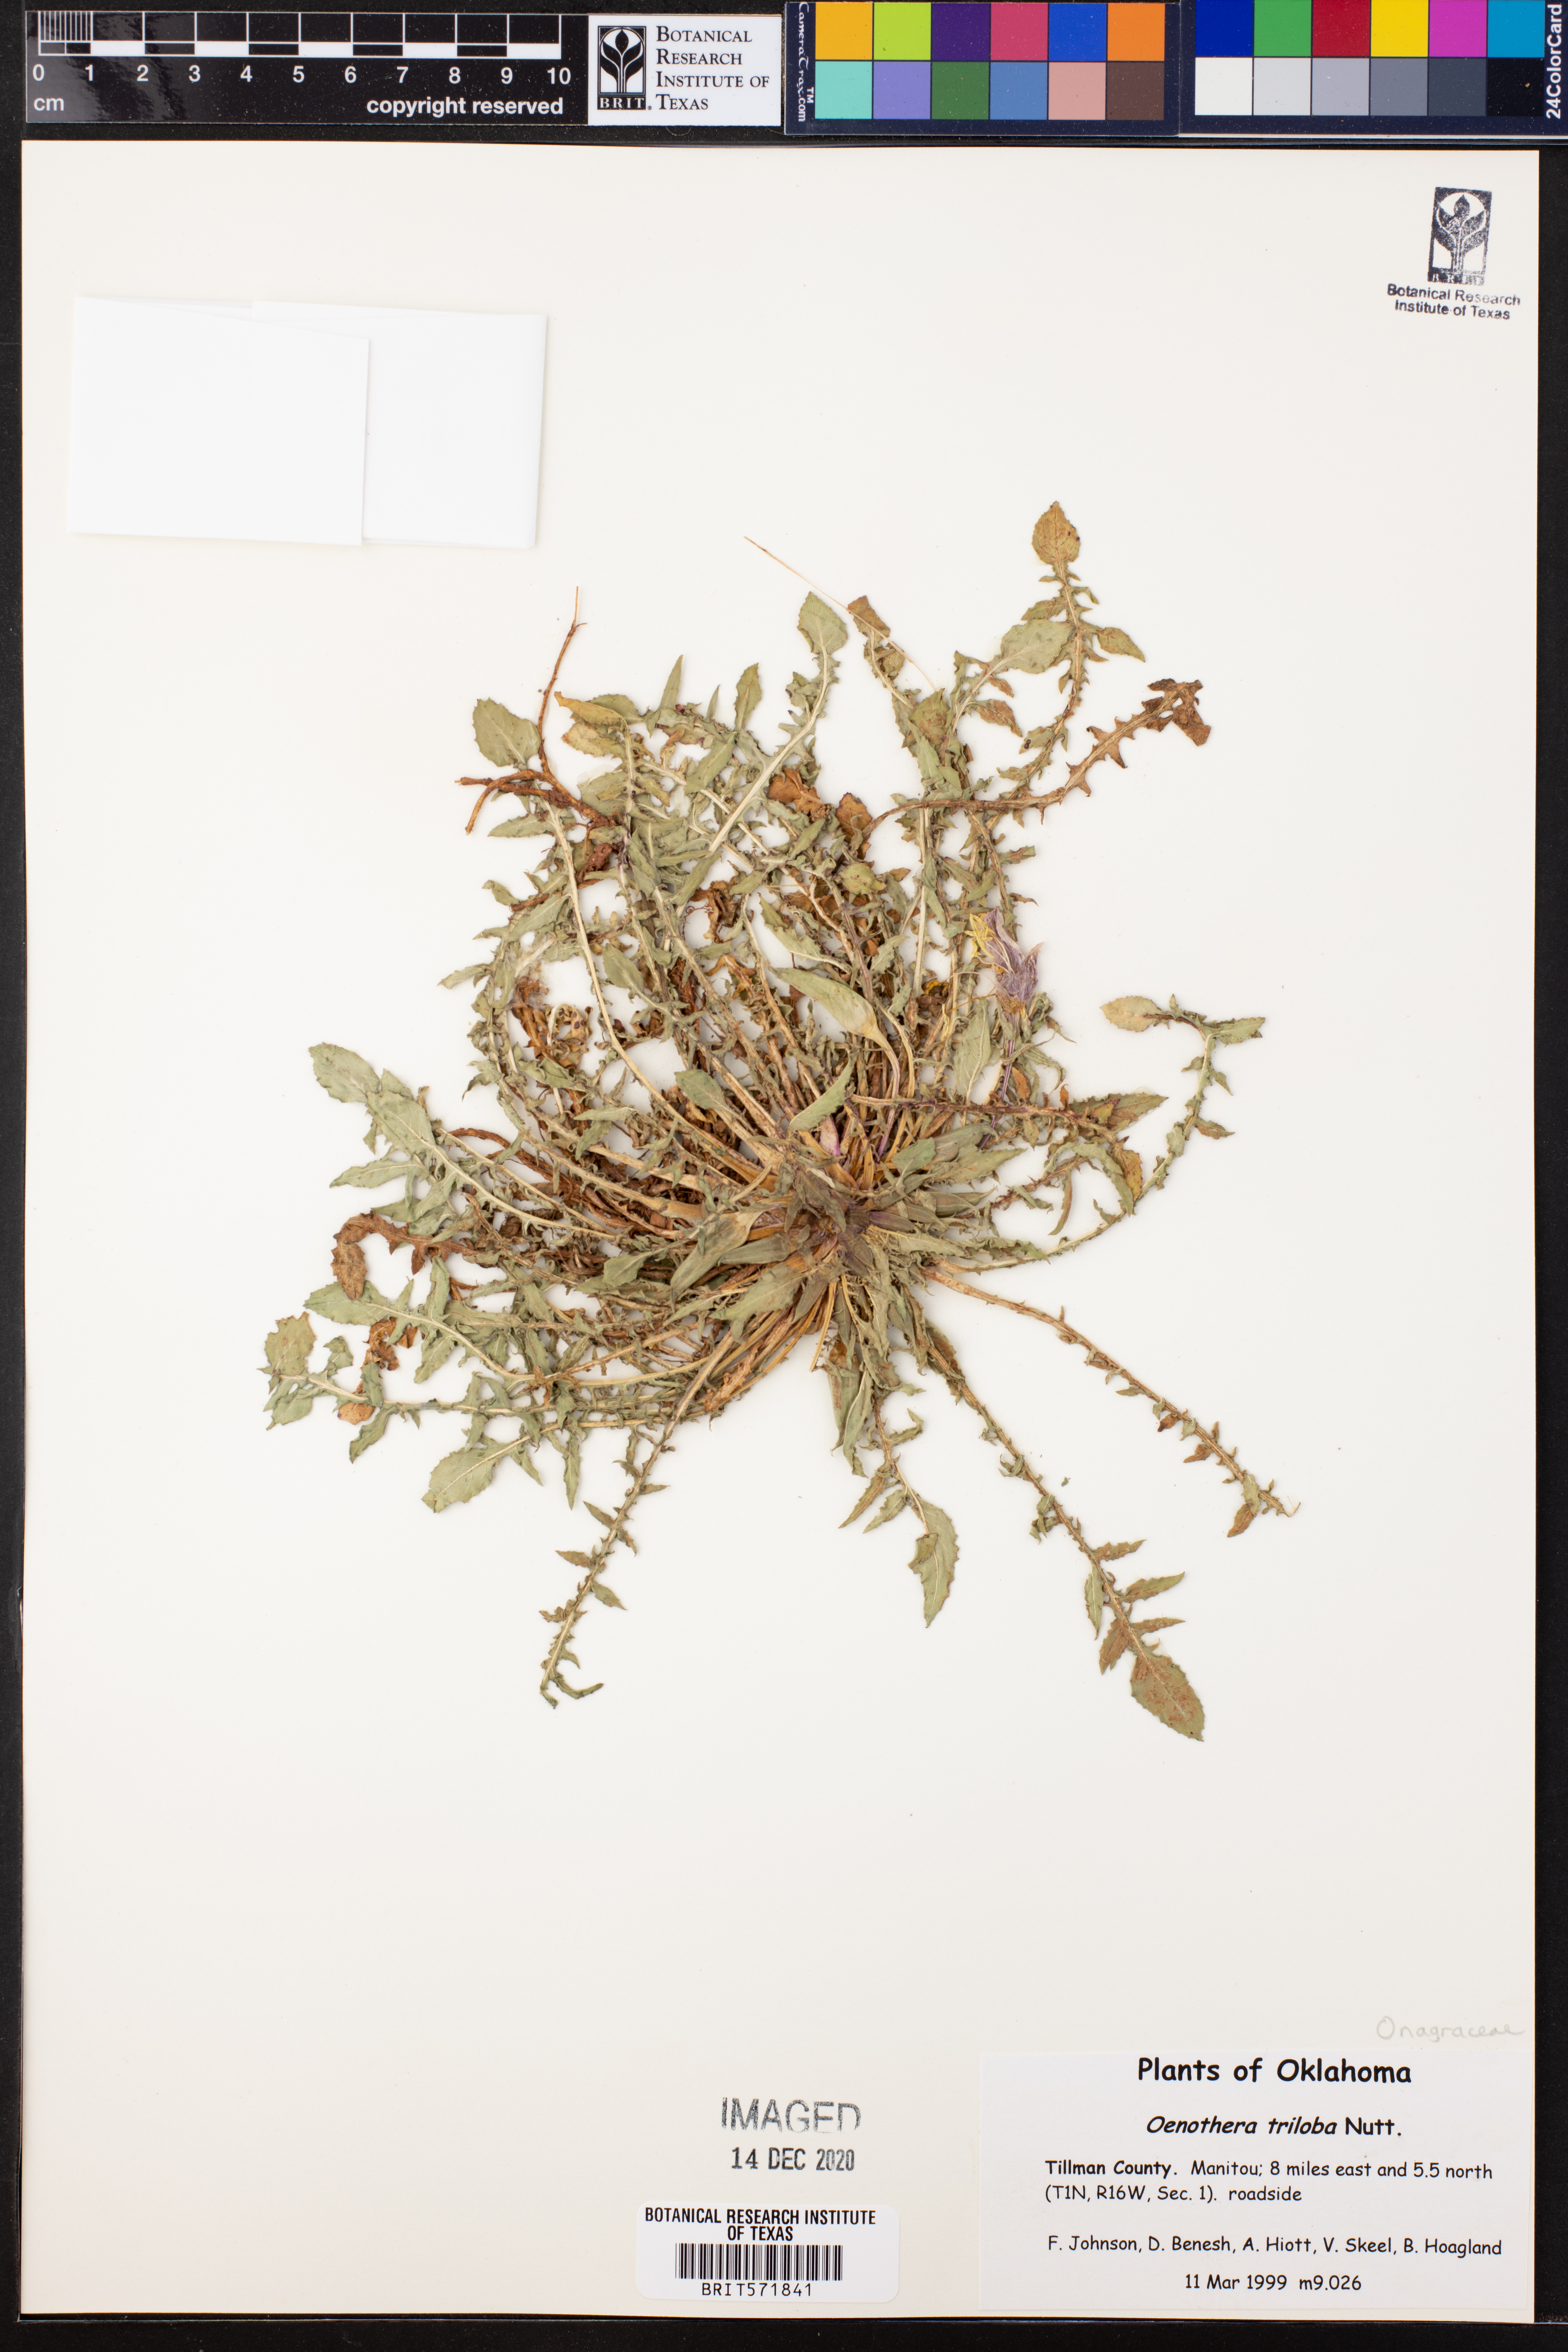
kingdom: Plantae
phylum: Tracheophyta
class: Magnoliopsida
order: Myrtales
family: Onagraceae
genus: Oenothera
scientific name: Oenothera triloba
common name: Sessile evening-primrose
